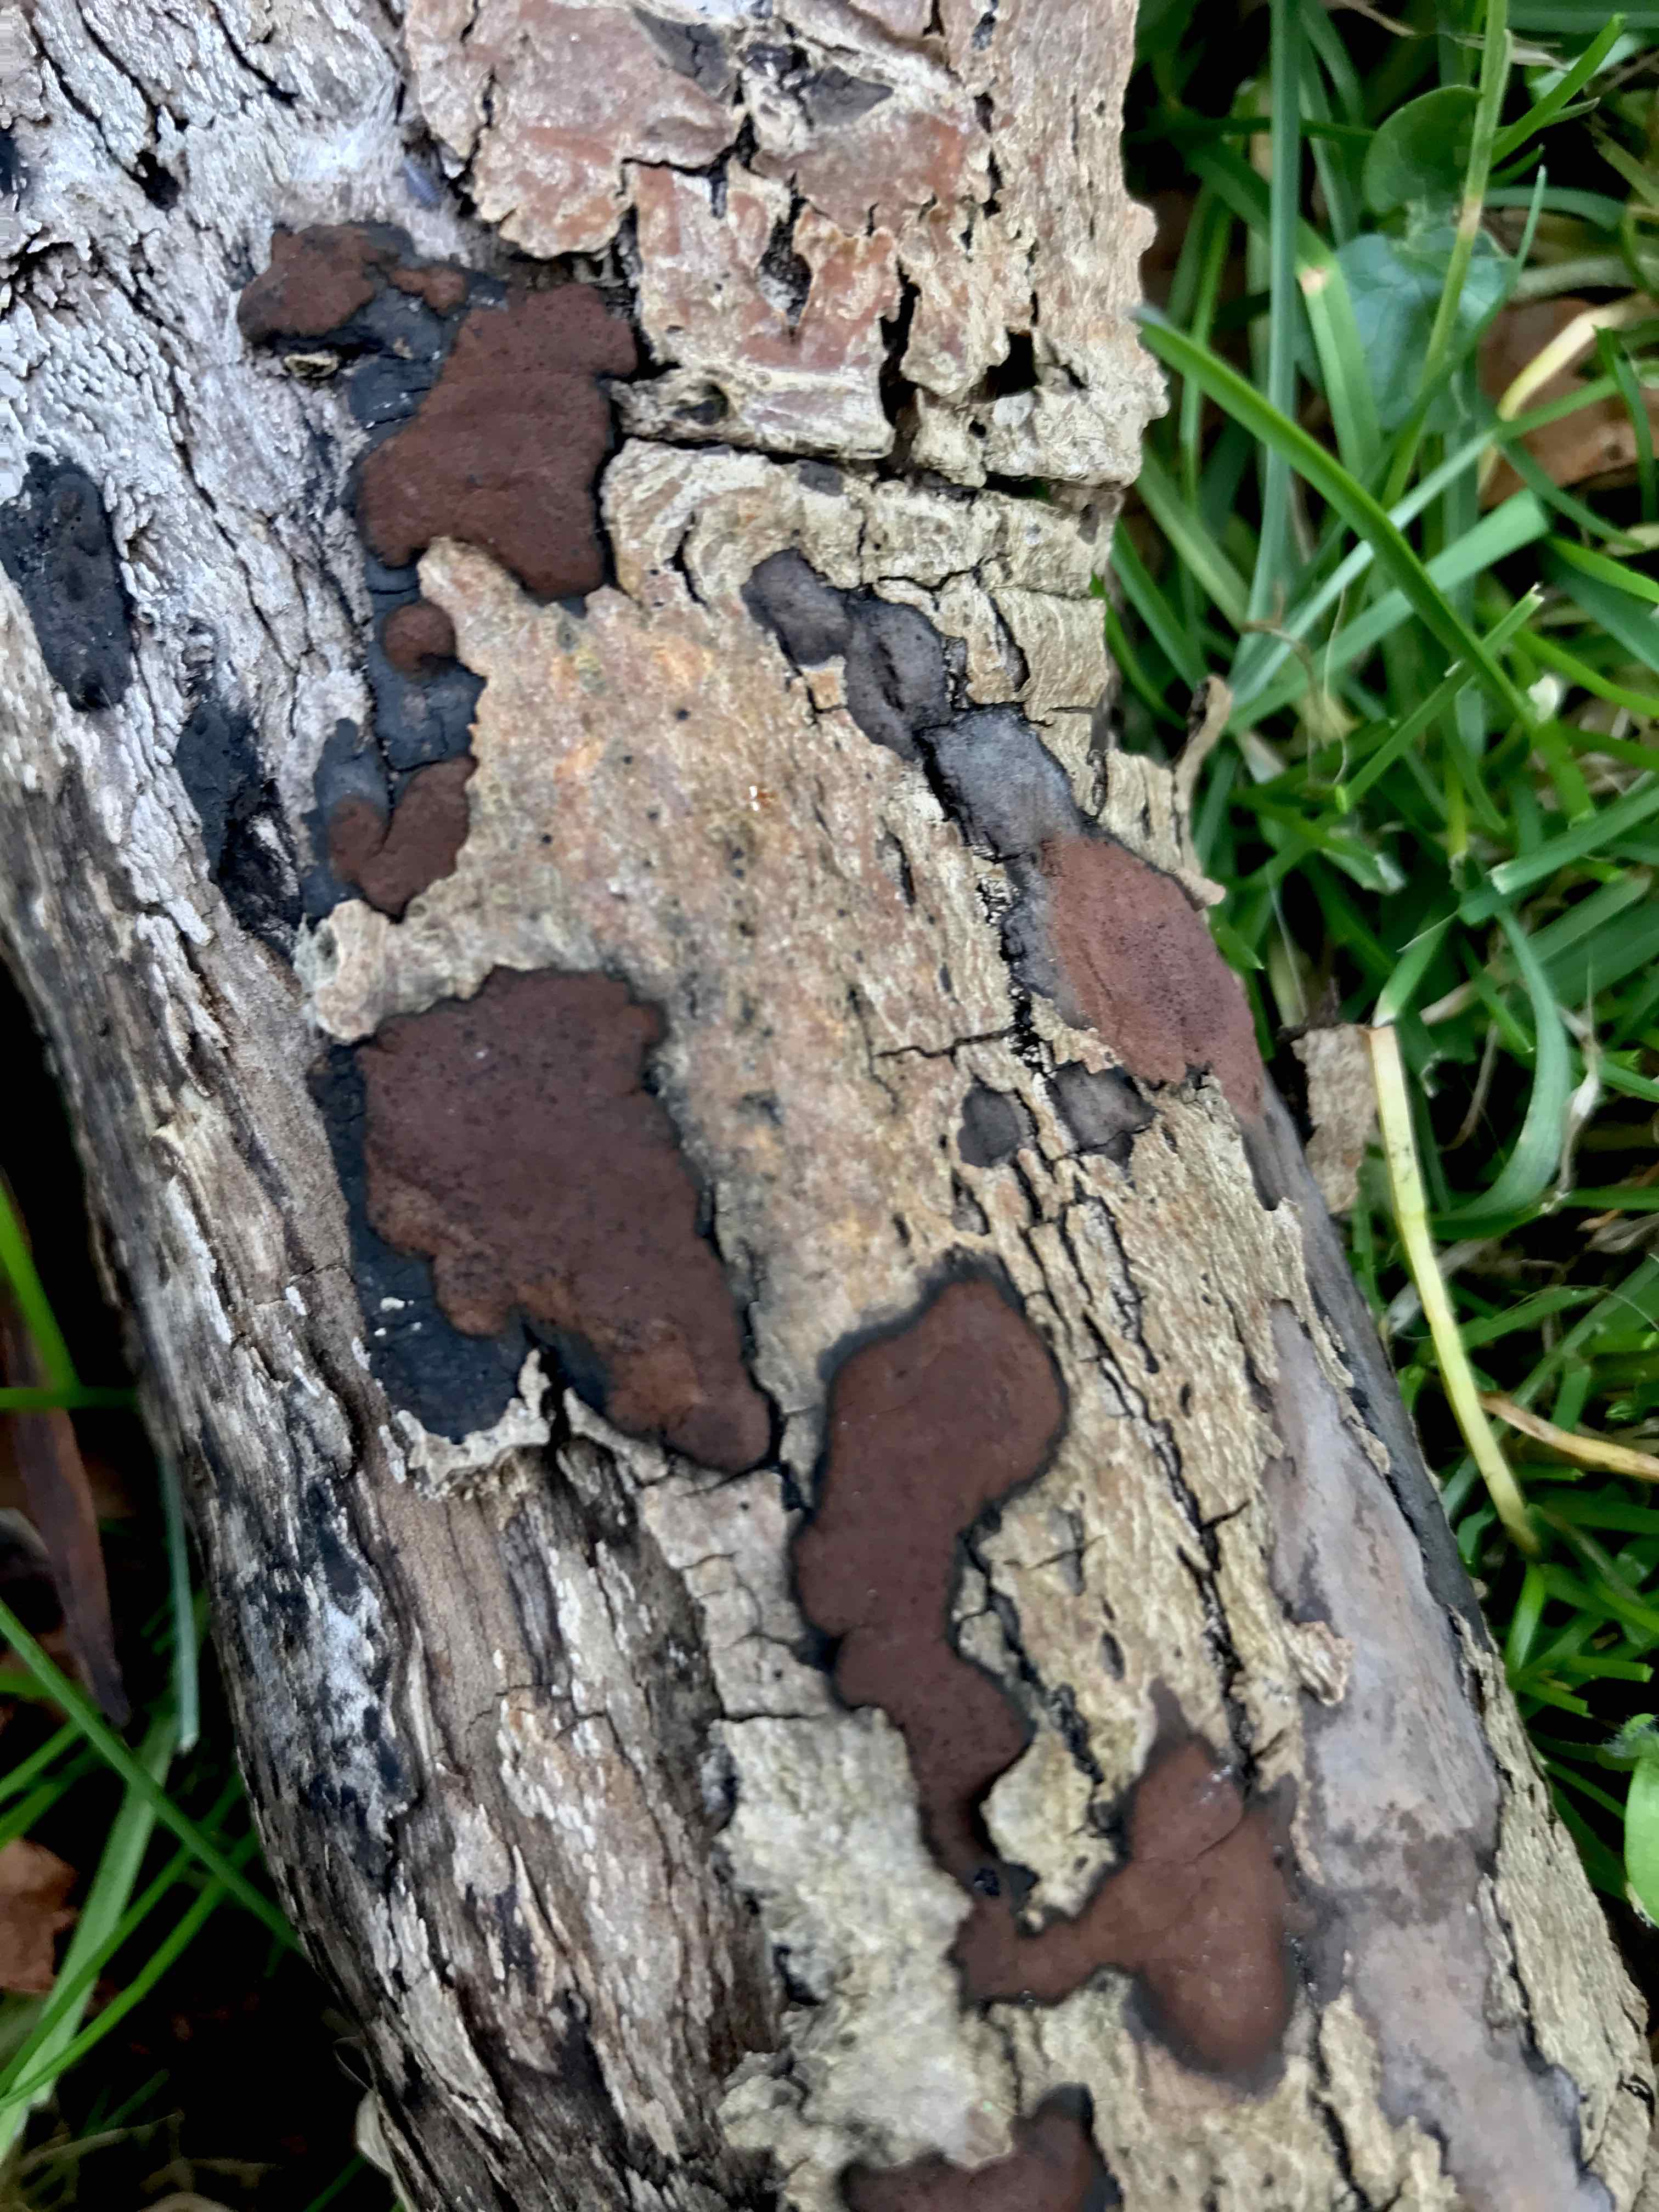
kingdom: Fungi
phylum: Ascomycota
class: Sordariomycetes
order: Xylariales
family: Hypoxylaceae
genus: Hypoxylon
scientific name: Hypoxylon petriniae
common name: nedsænket kulbær
